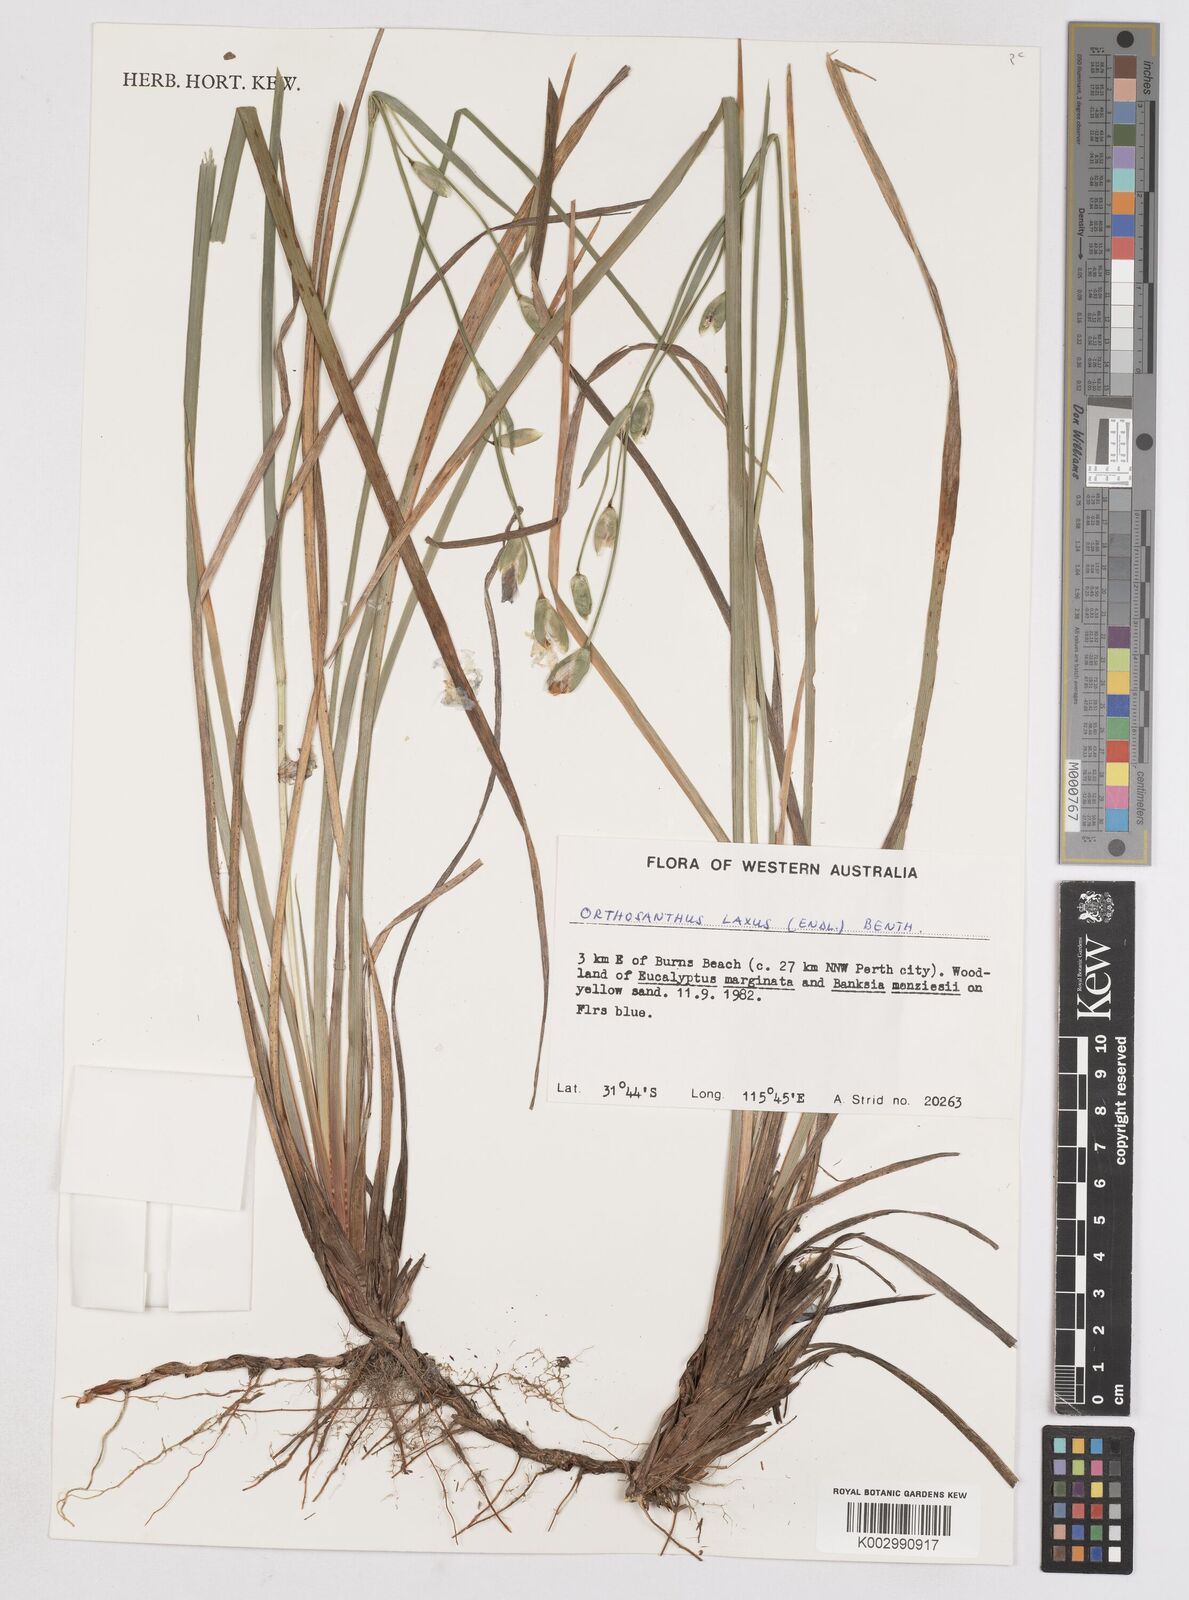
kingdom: Plantae
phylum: Tracheophyta
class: Liliopsida
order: Asparagales
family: Iridaceae
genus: Orthrosanthus
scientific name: Orthrosanthus laxus
